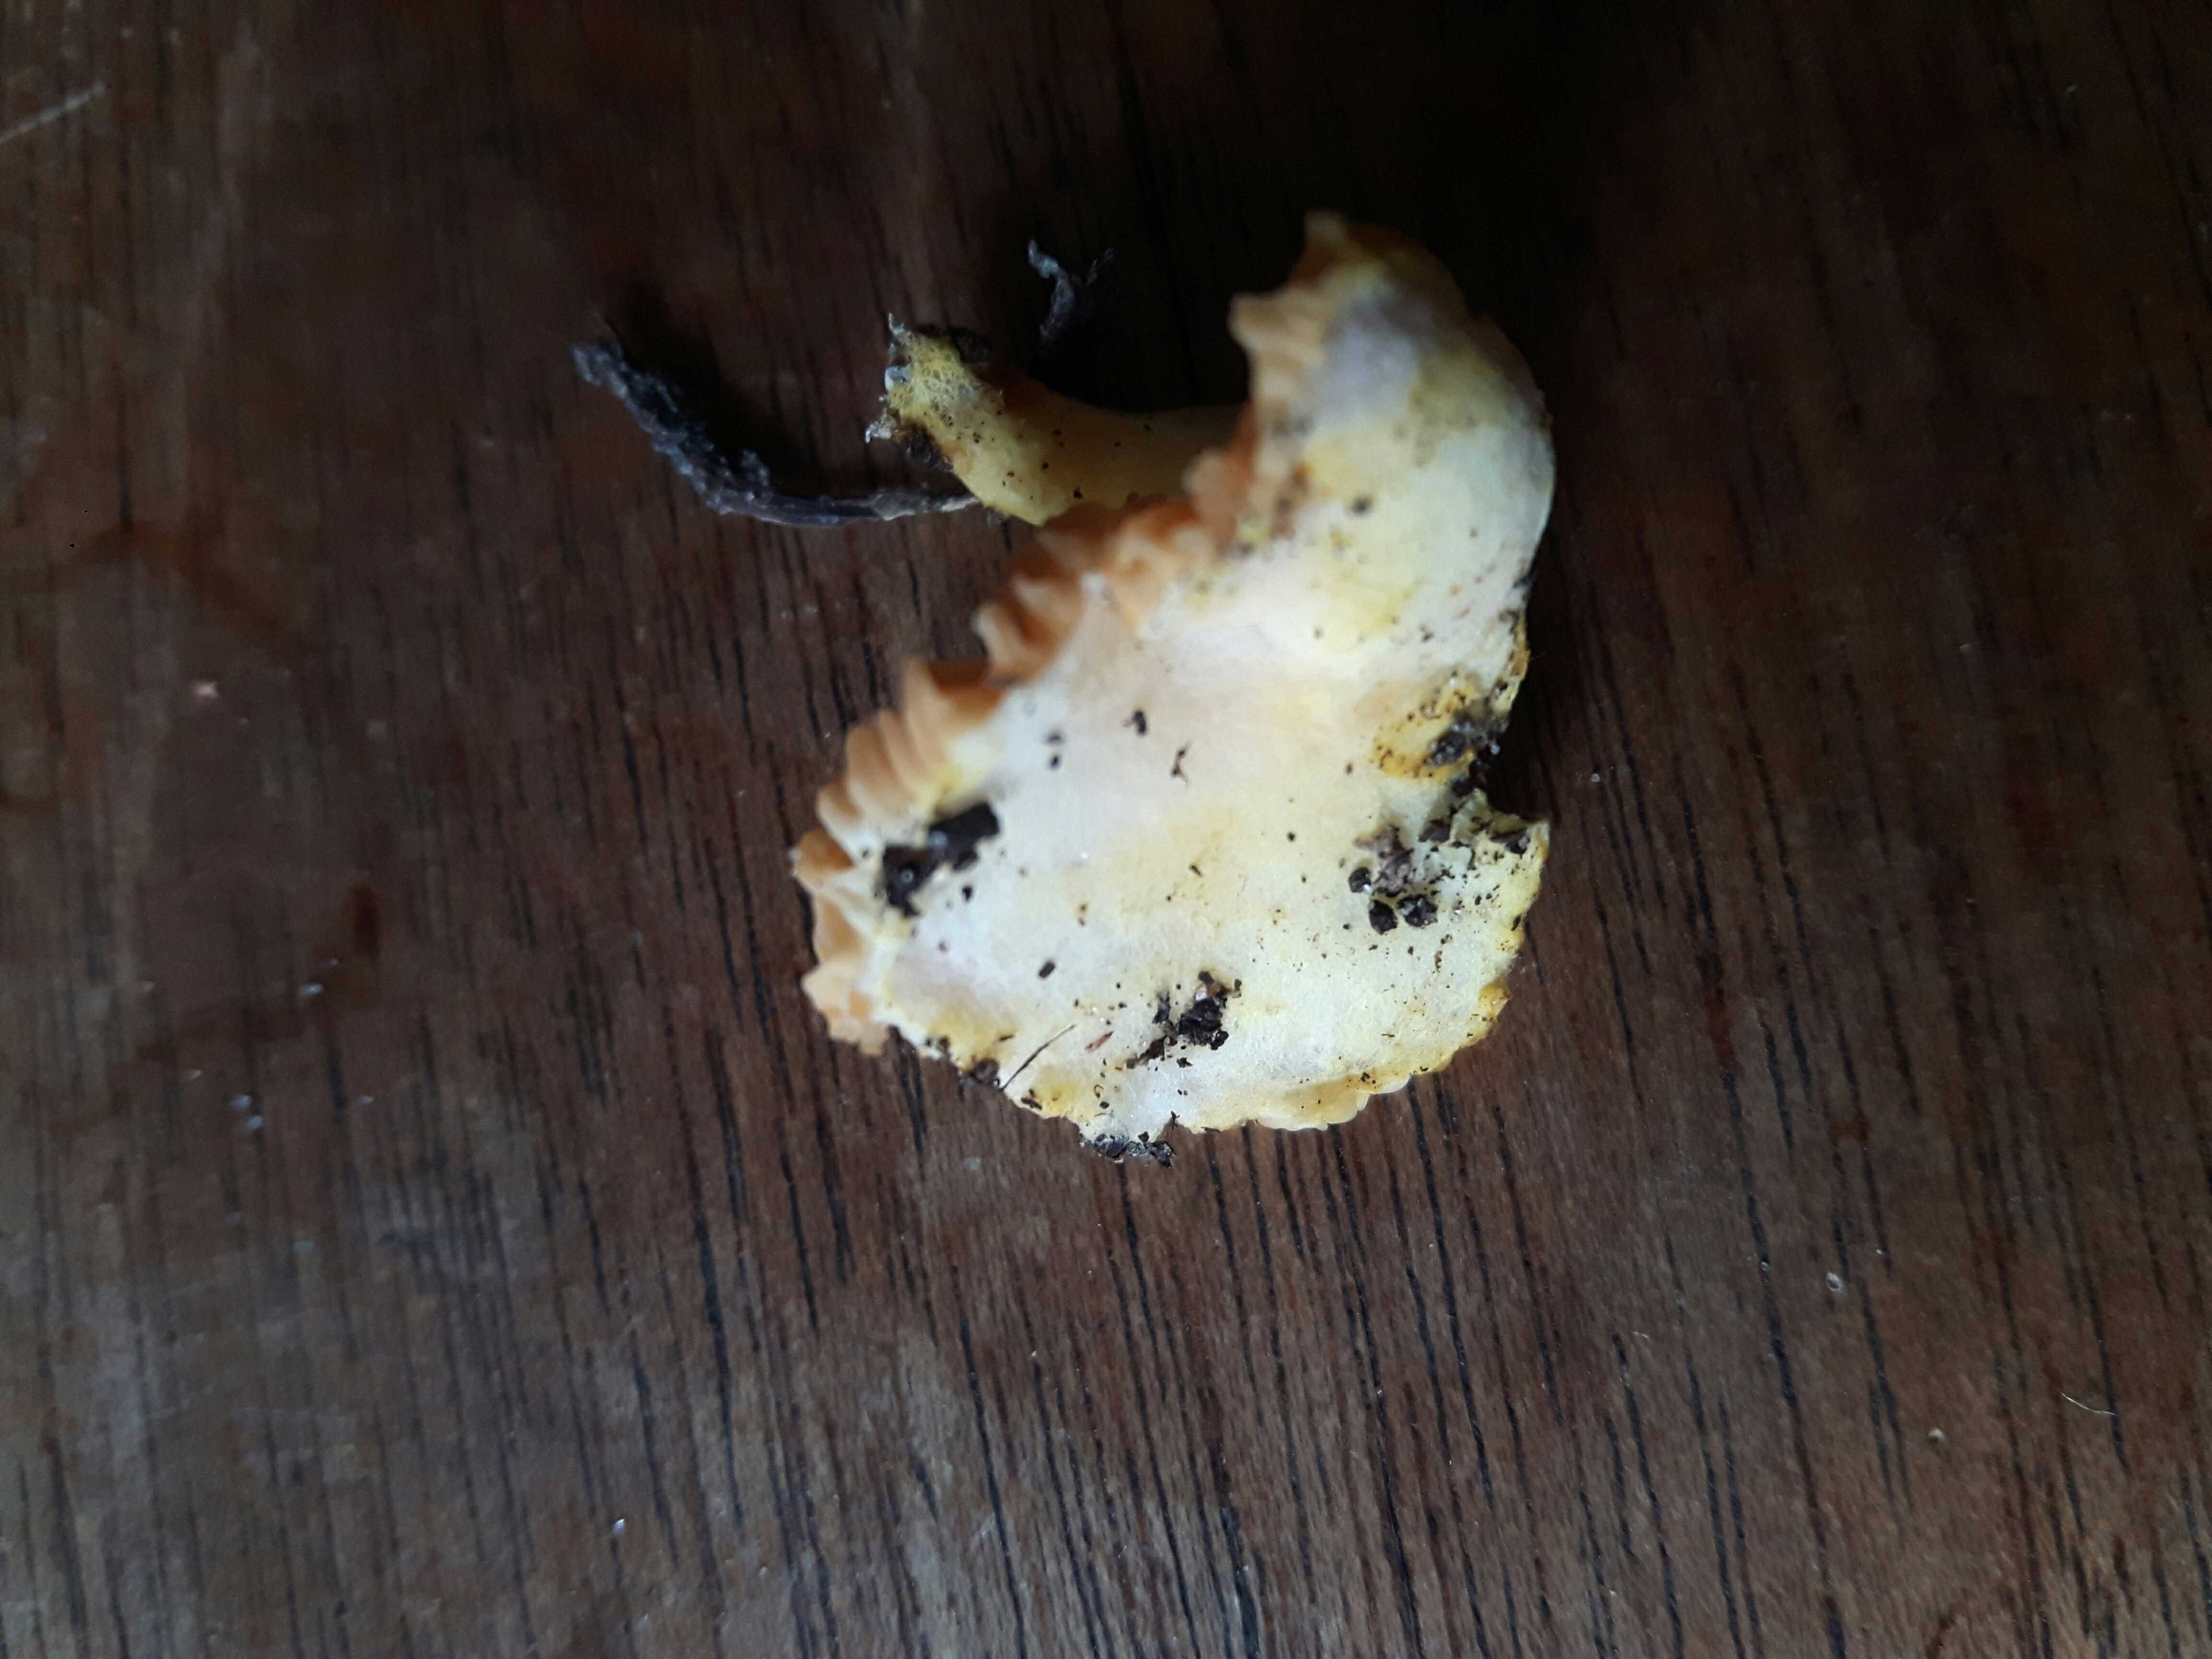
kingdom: Fungi
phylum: Basidiomycota
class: Agaricomycetes
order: Agaricales
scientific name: Agaricales
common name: champignonordenen
